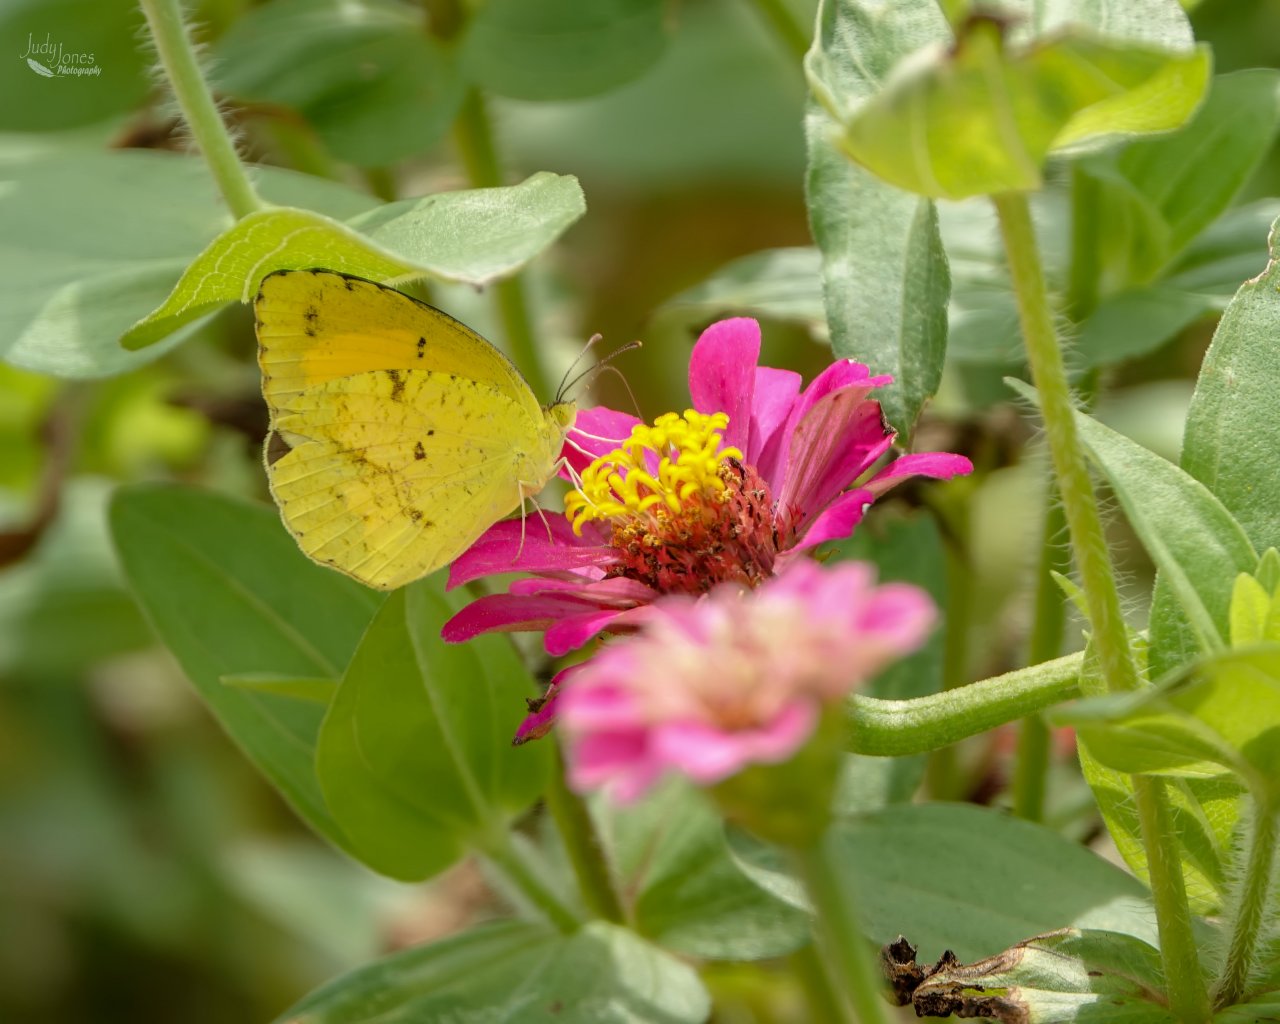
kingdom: Animalia
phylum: Arthropoda
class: Insecta
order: Lepidoptera
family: Pieridae
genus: Abaeis
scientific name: Abaeis nicippe
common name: Sleepy Orange
